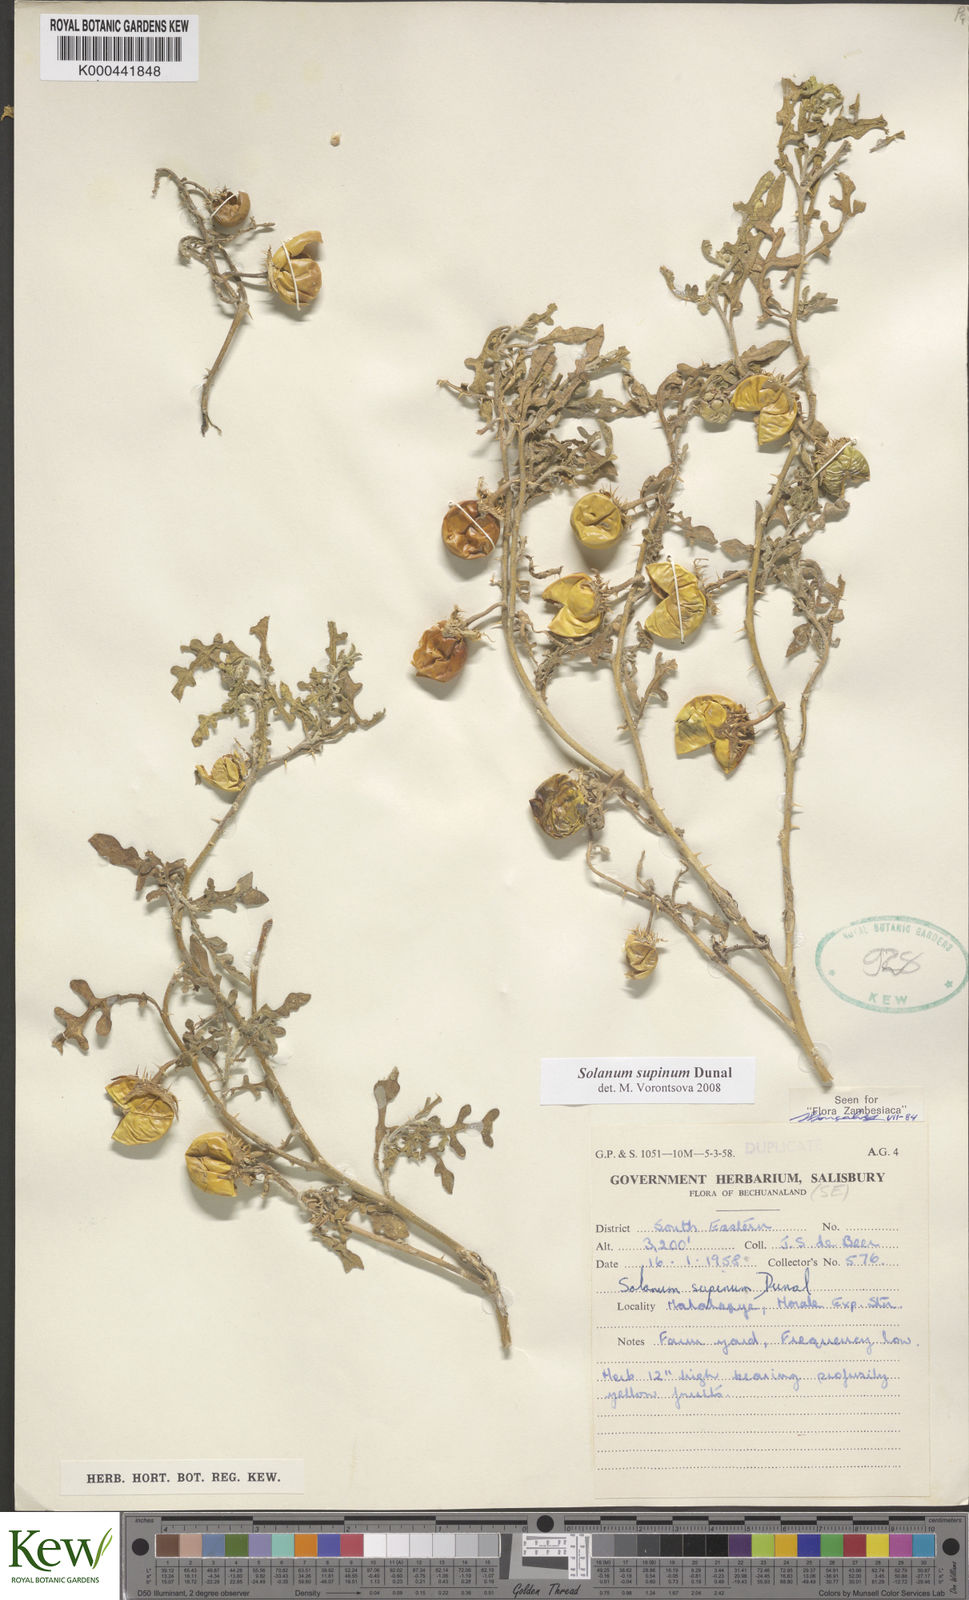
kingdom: Plantae
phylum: Tracheophyta
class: Magnoliopsida
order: Solanales
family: Solanaceae
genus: Solanum
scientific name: Solanum supinum
